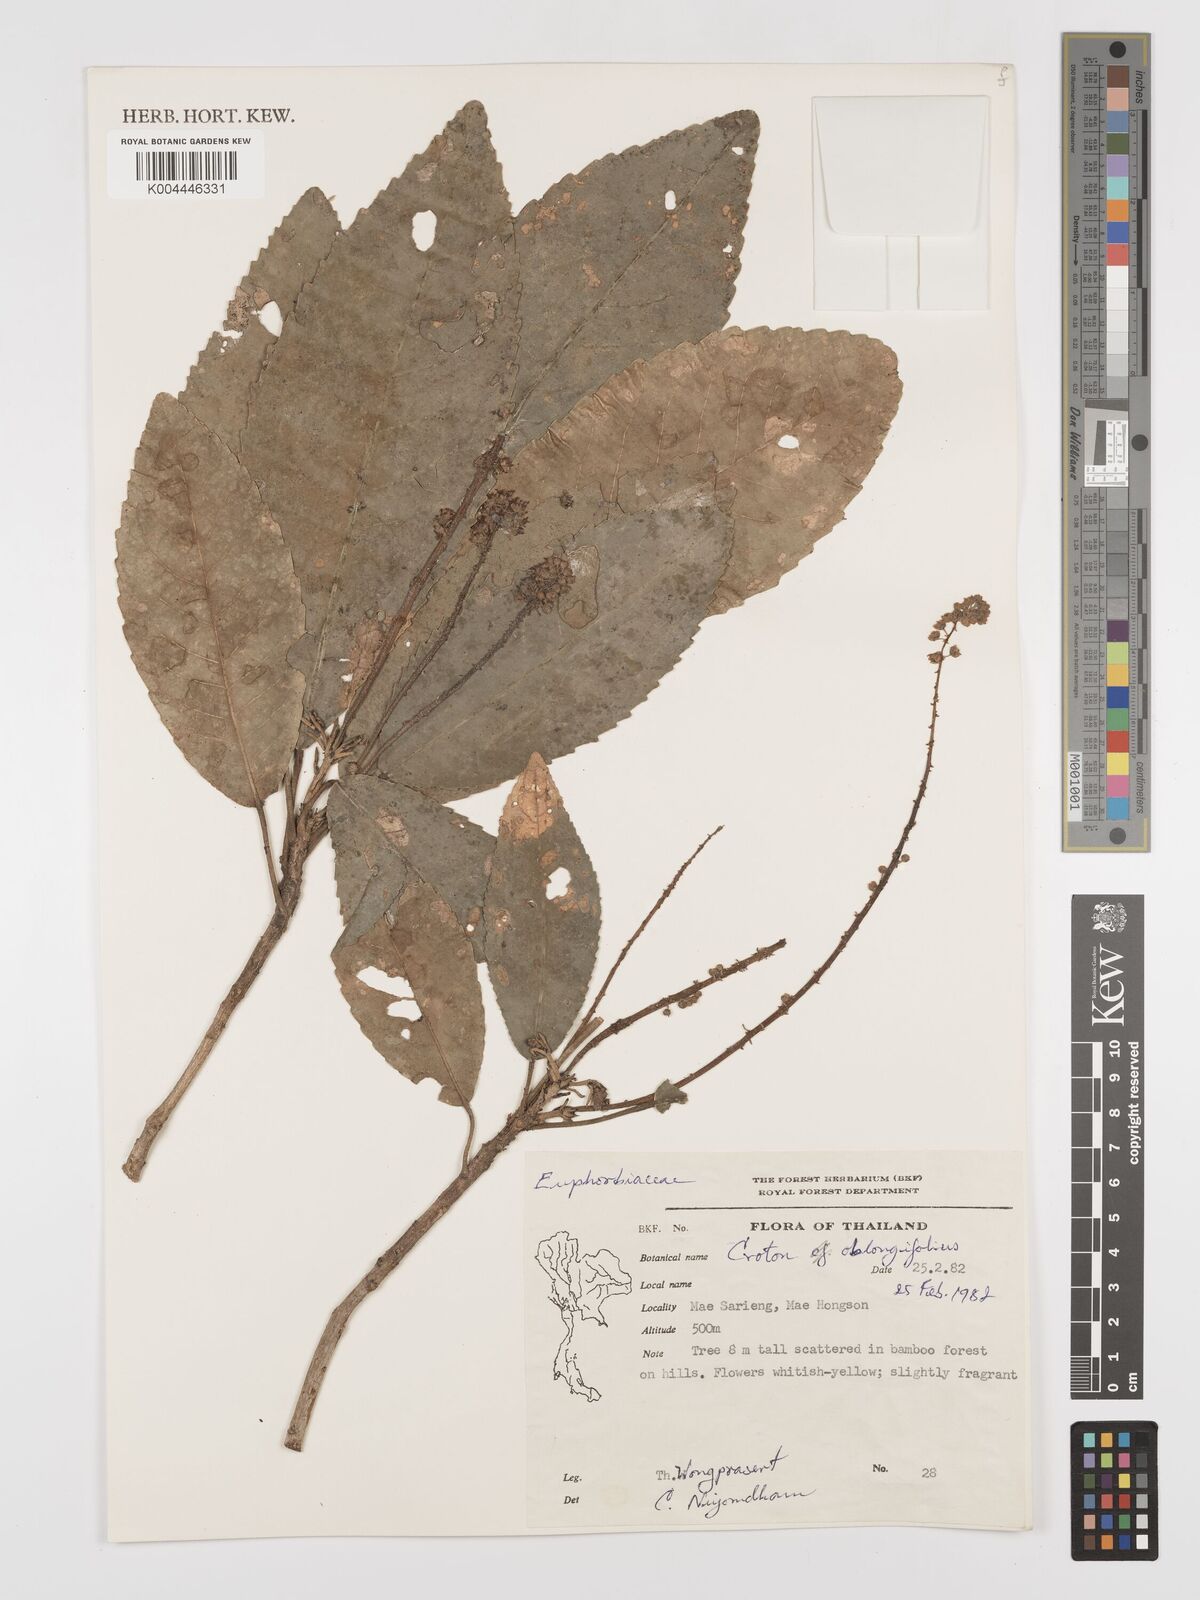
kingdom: Plantae
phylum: Tracheophyta
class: Magnoliopsida
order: Malpighiales
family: Euphorbiaceae
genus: Baliospermum
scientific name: Baliospermum solanifolium
